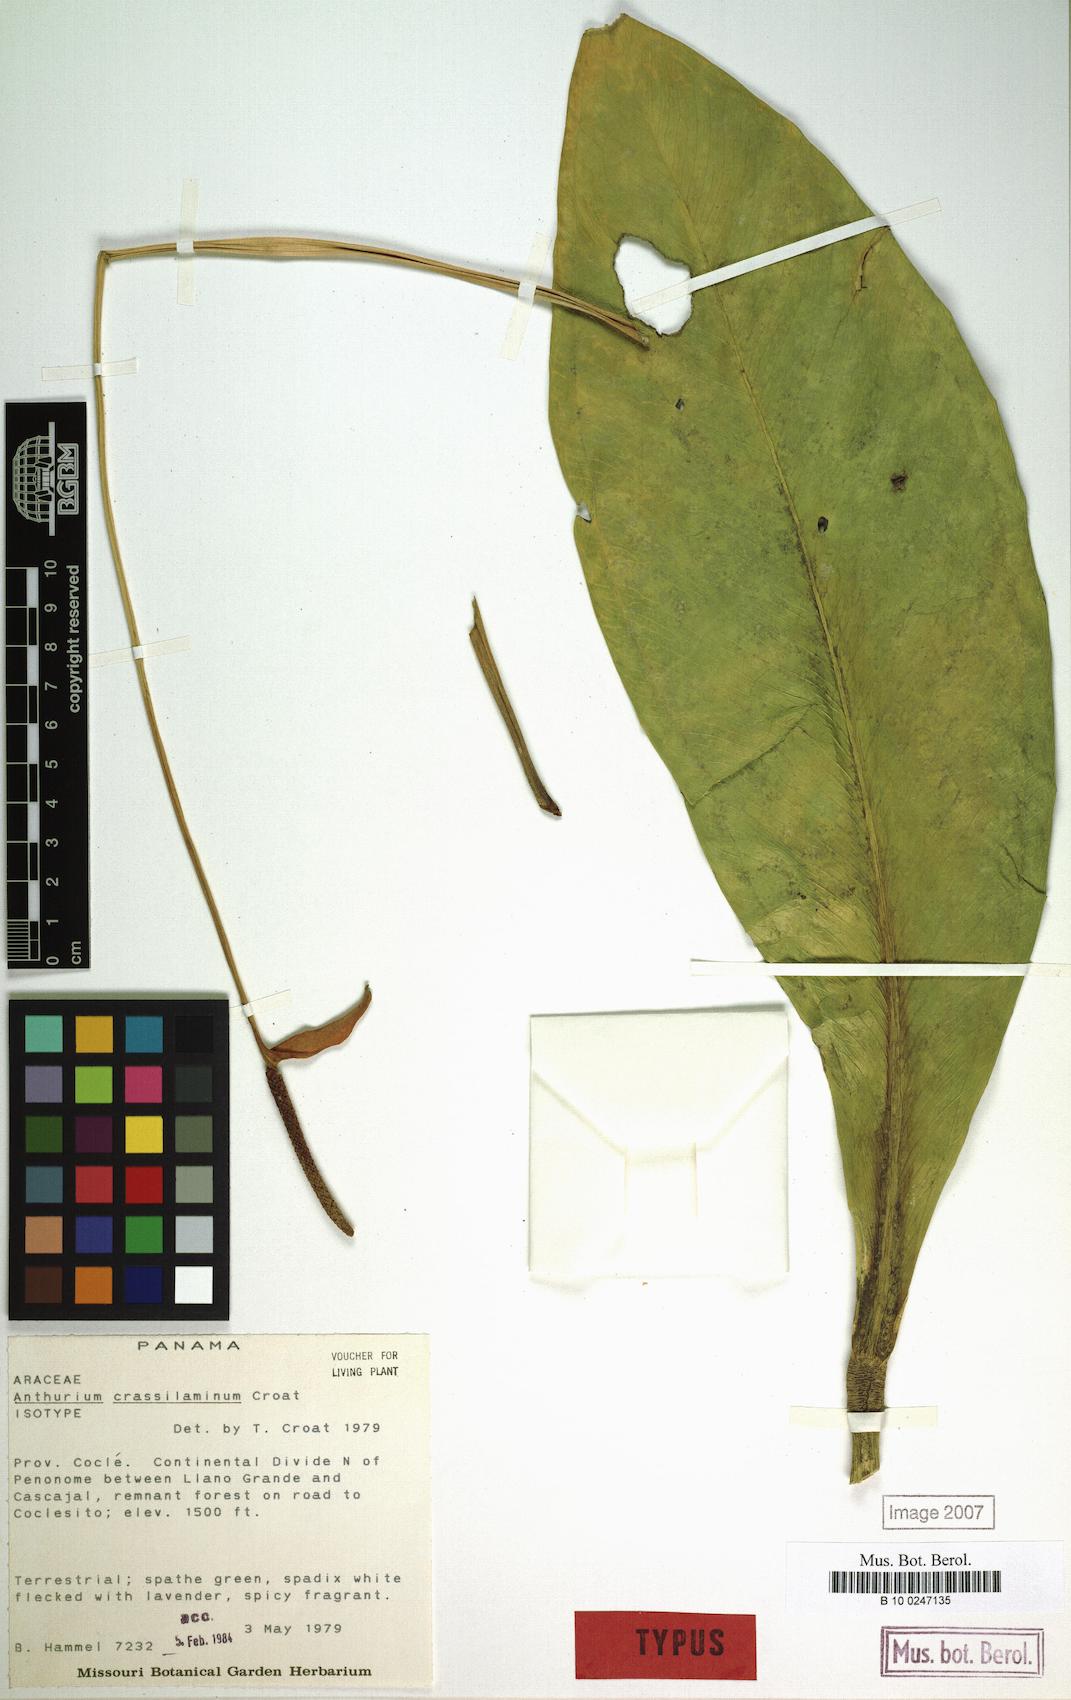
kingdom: Plantae
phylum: Tracheophyta
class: Liliopsida
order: Alismatales
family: Araceae
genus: Anthurium
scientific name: Anthurium crassilaminum
